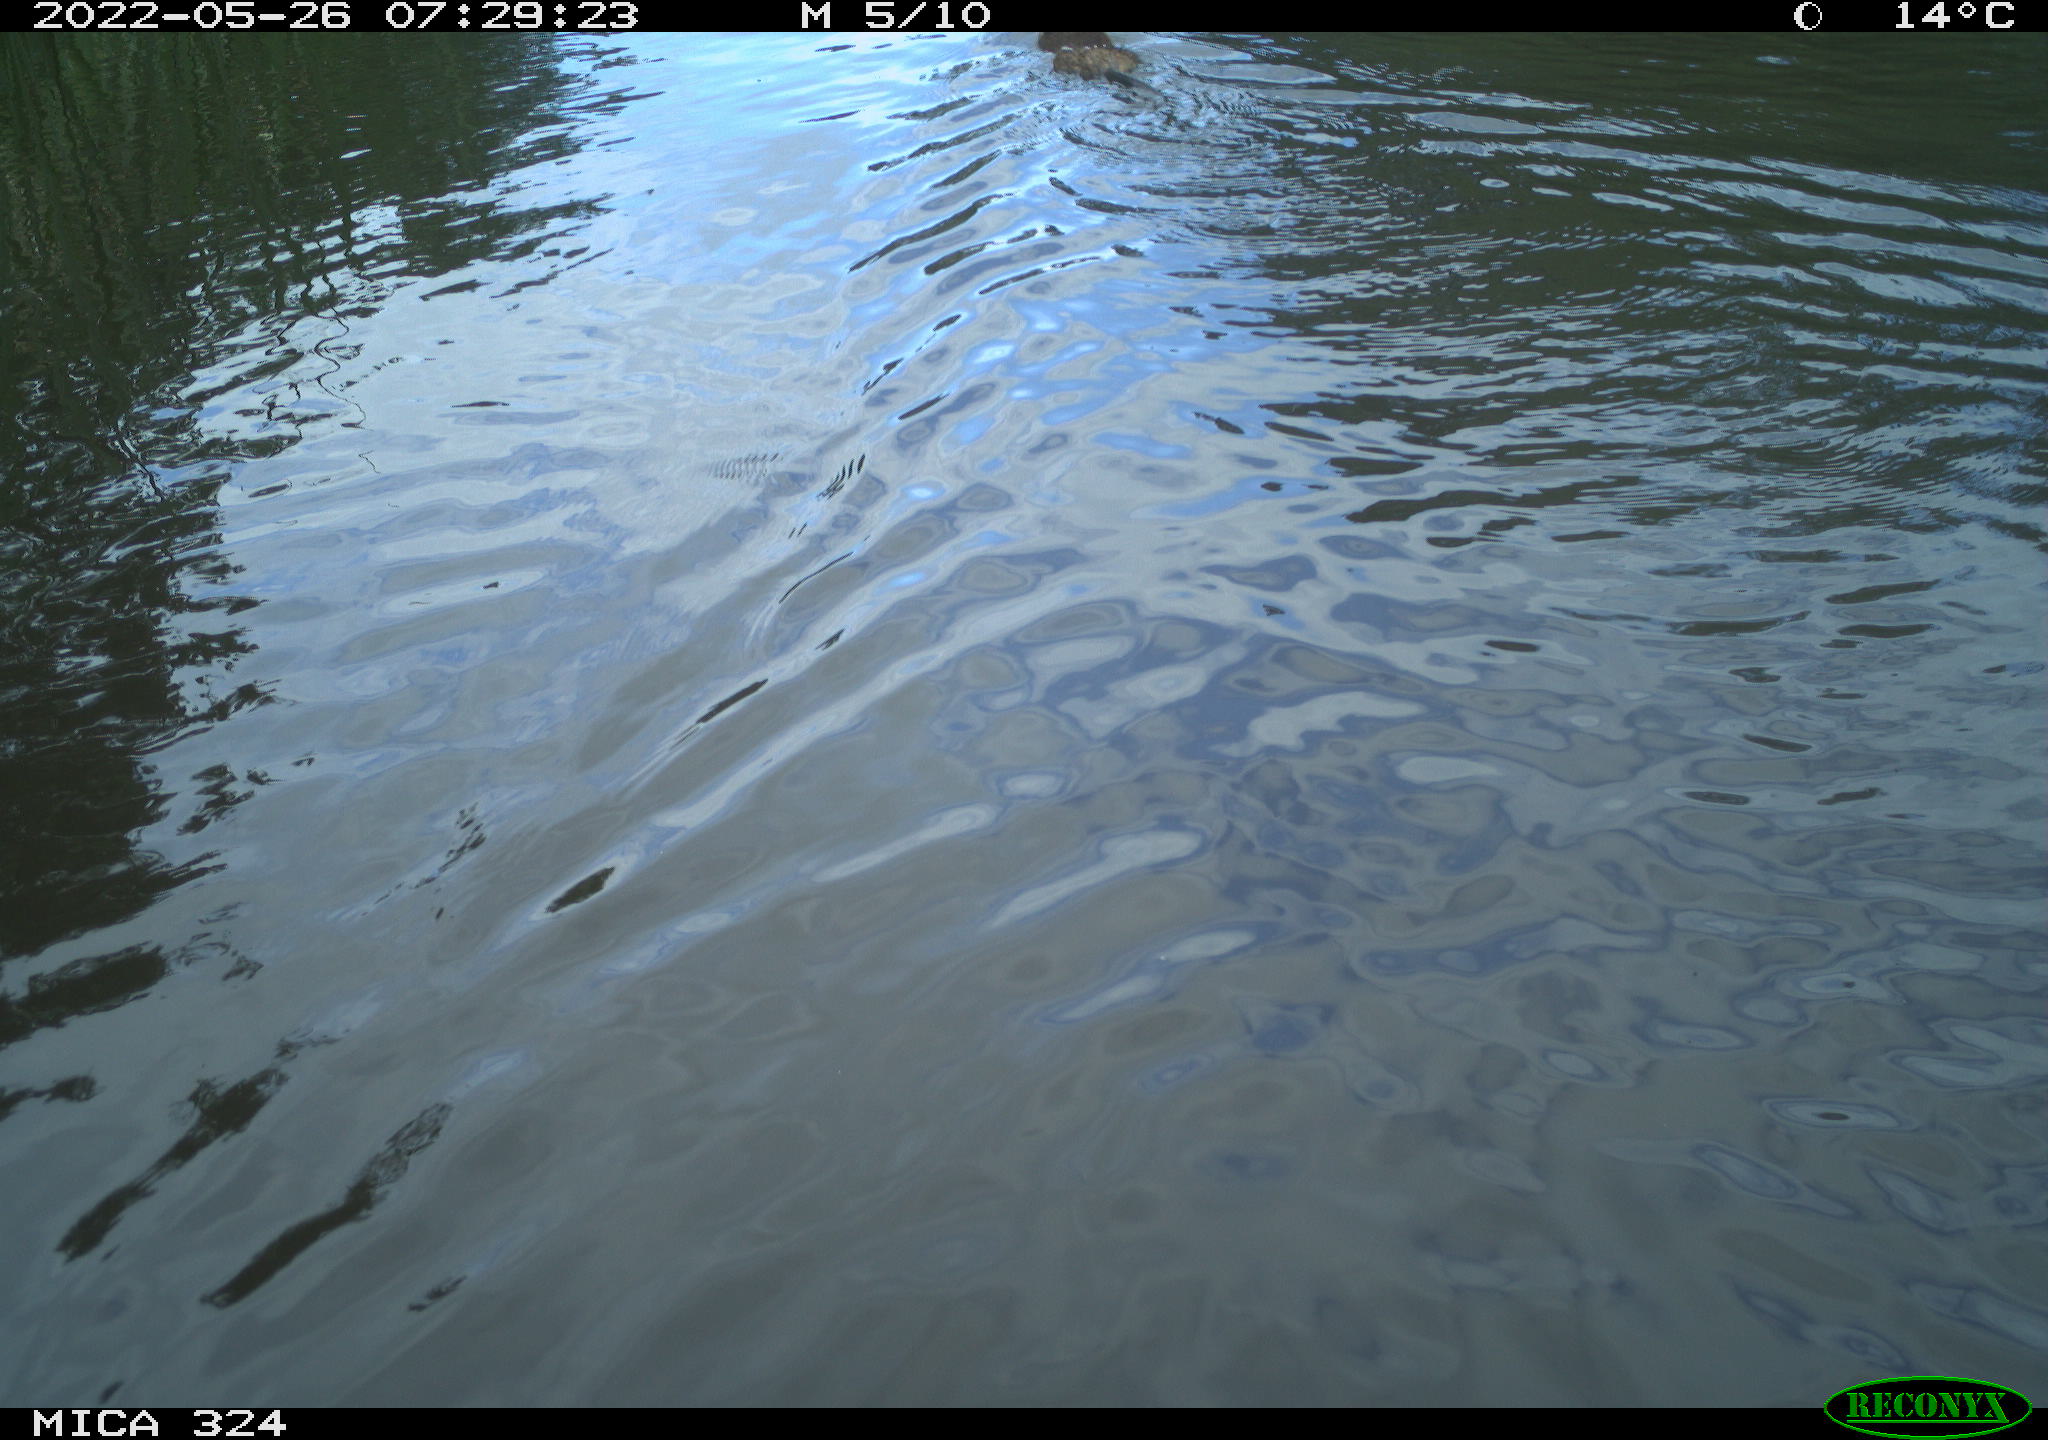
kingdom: Animalia
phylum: Chordata
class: Mammalia
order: Rodentia
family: Cricetidae
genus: Ondatra
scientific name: Ondatra zibethicus
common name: Muskrat
